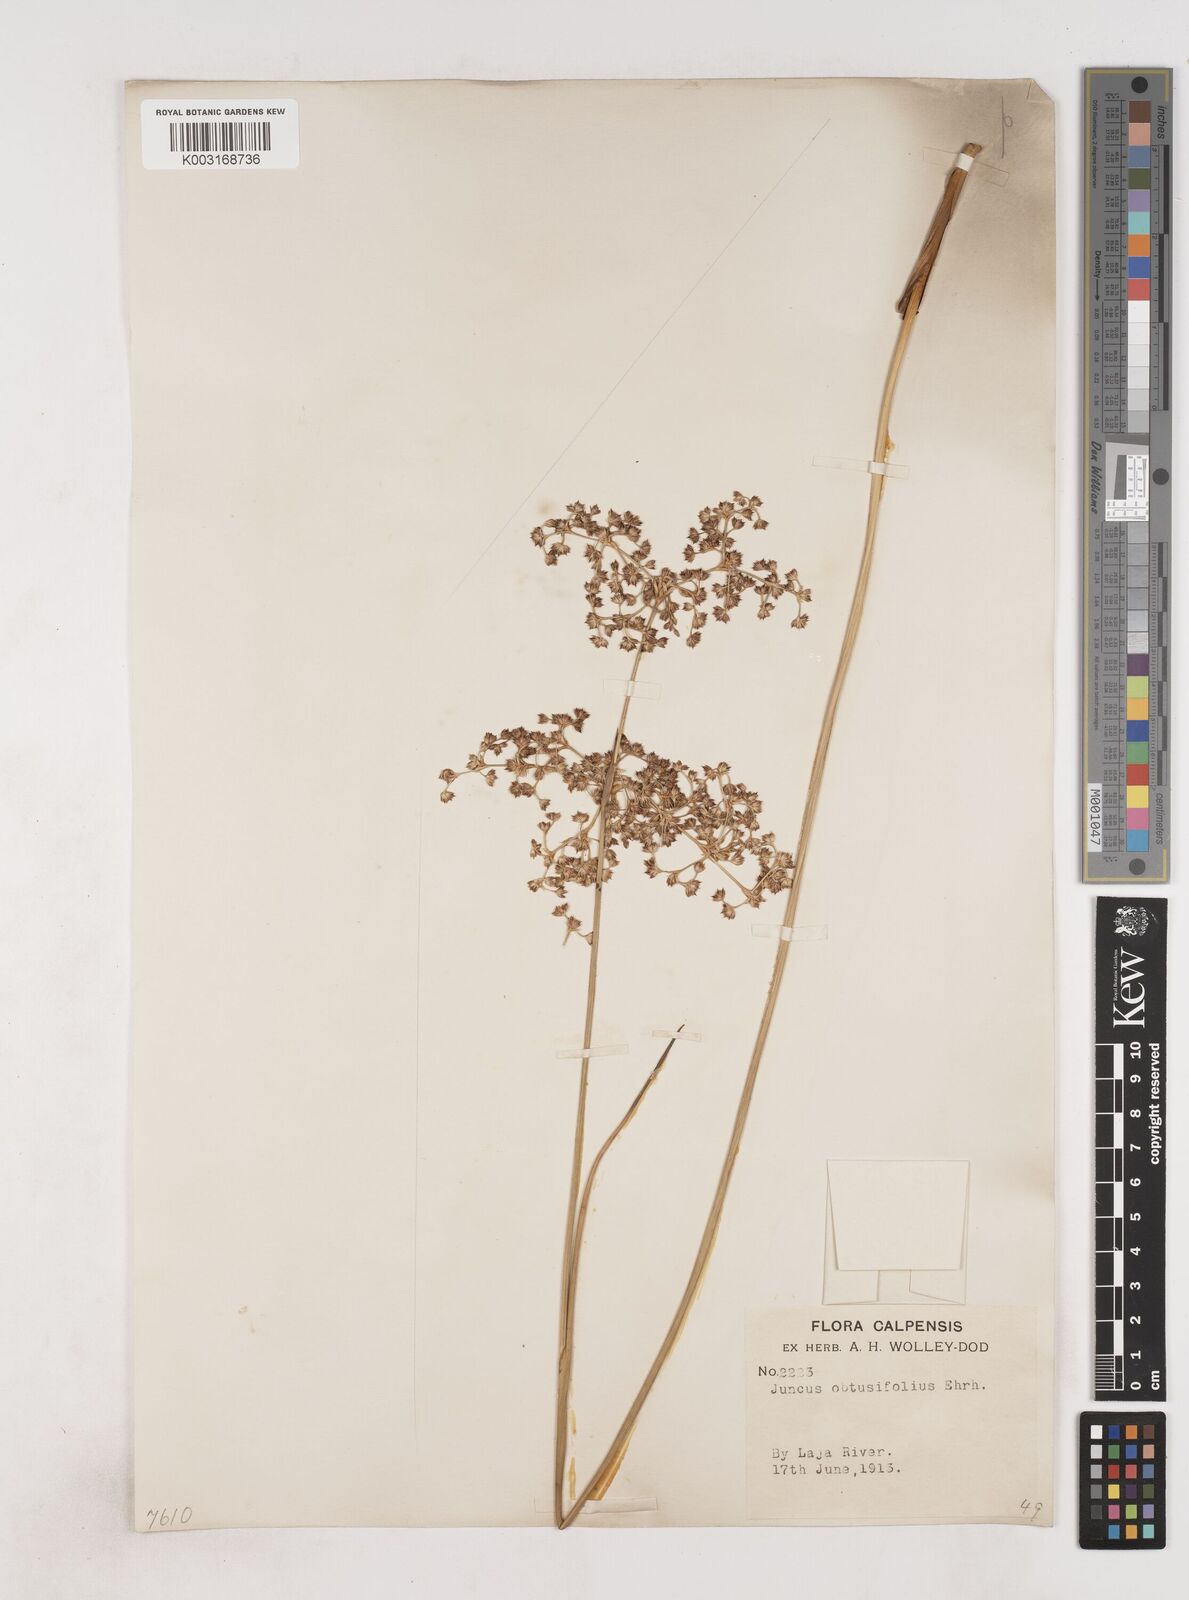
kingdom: Plantae
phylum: Tracheophyta
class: Liliopsida
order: Poales
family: Juncaceae
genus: Juncus
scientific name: Juncus subnodulosus
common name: Blunt-flowered rush
